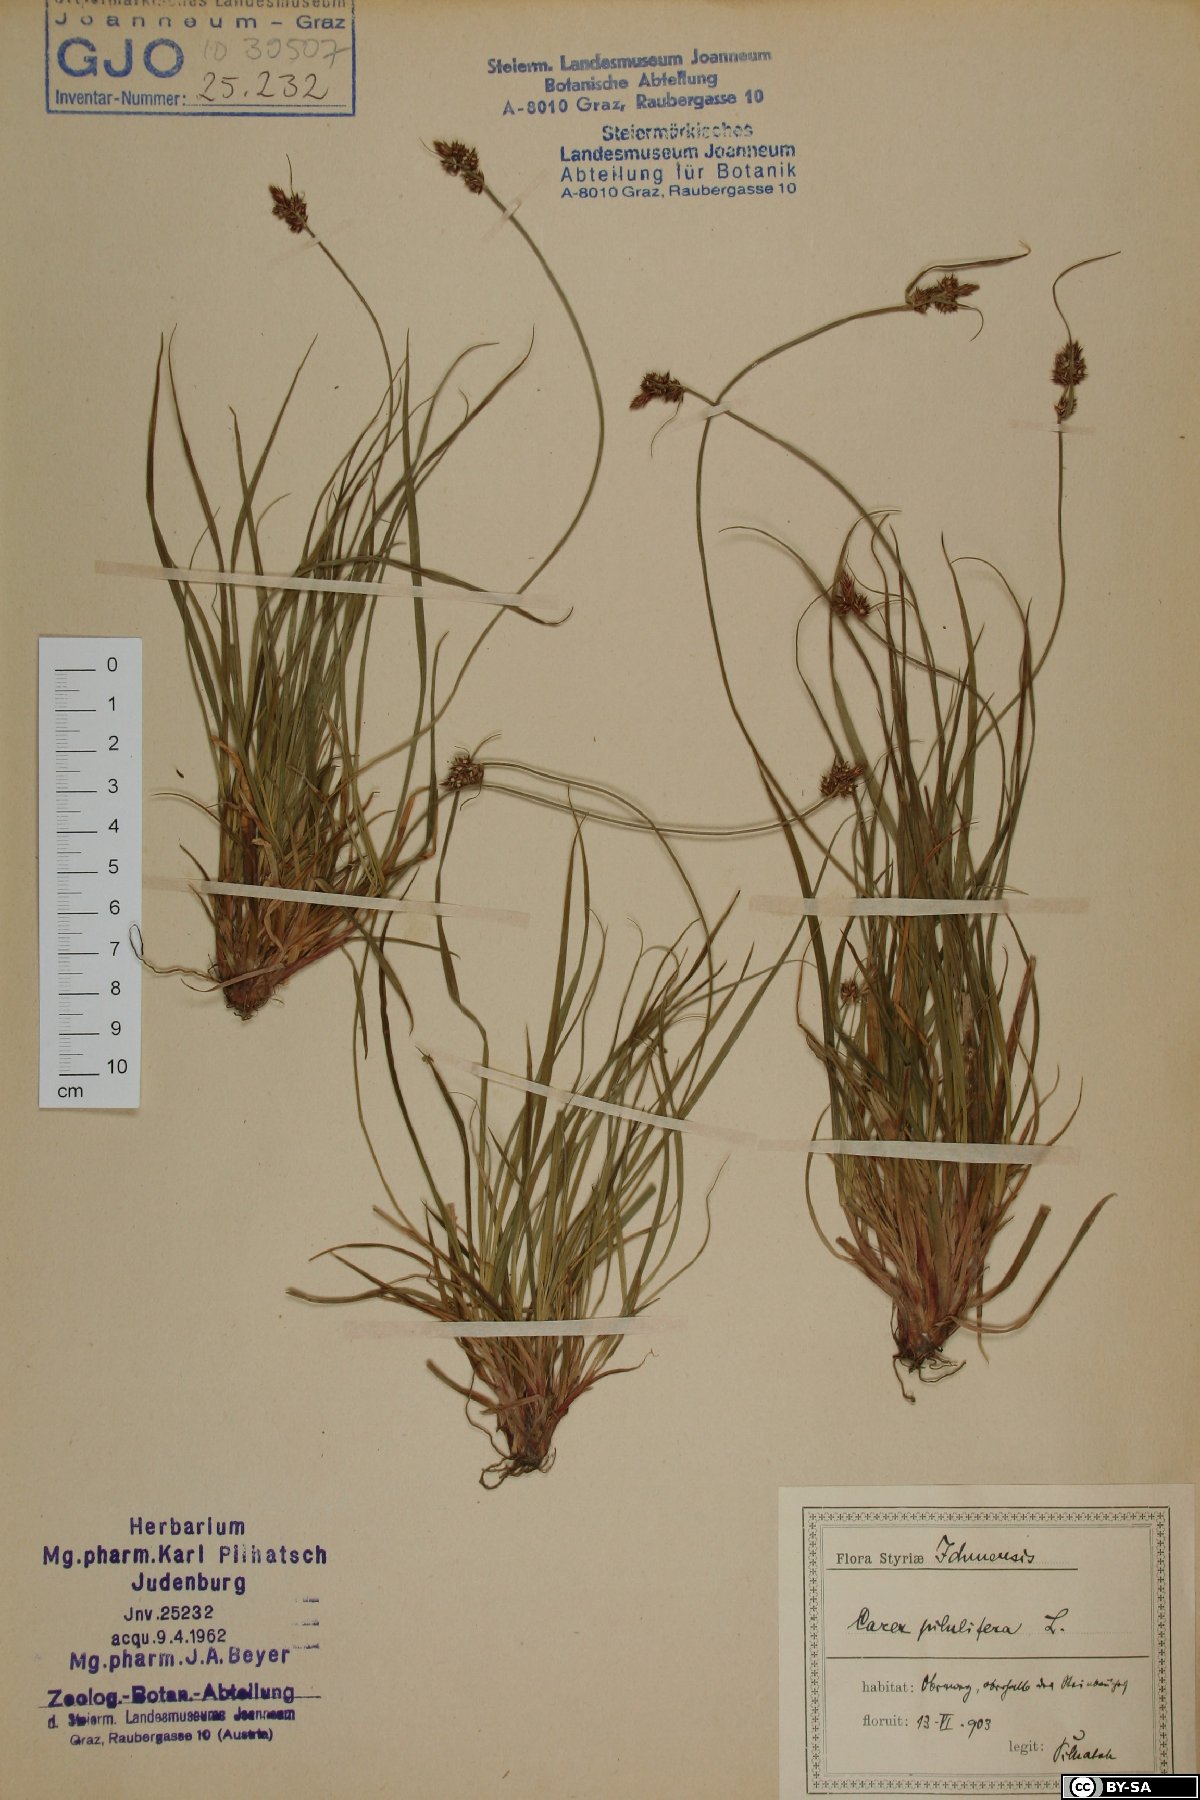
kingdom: Plantae
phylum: Tracheophyta
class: Liliopsida
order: Poales
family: Cyperaceae
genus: Carex
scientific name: Carex pilulifera
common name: Pill sedge
